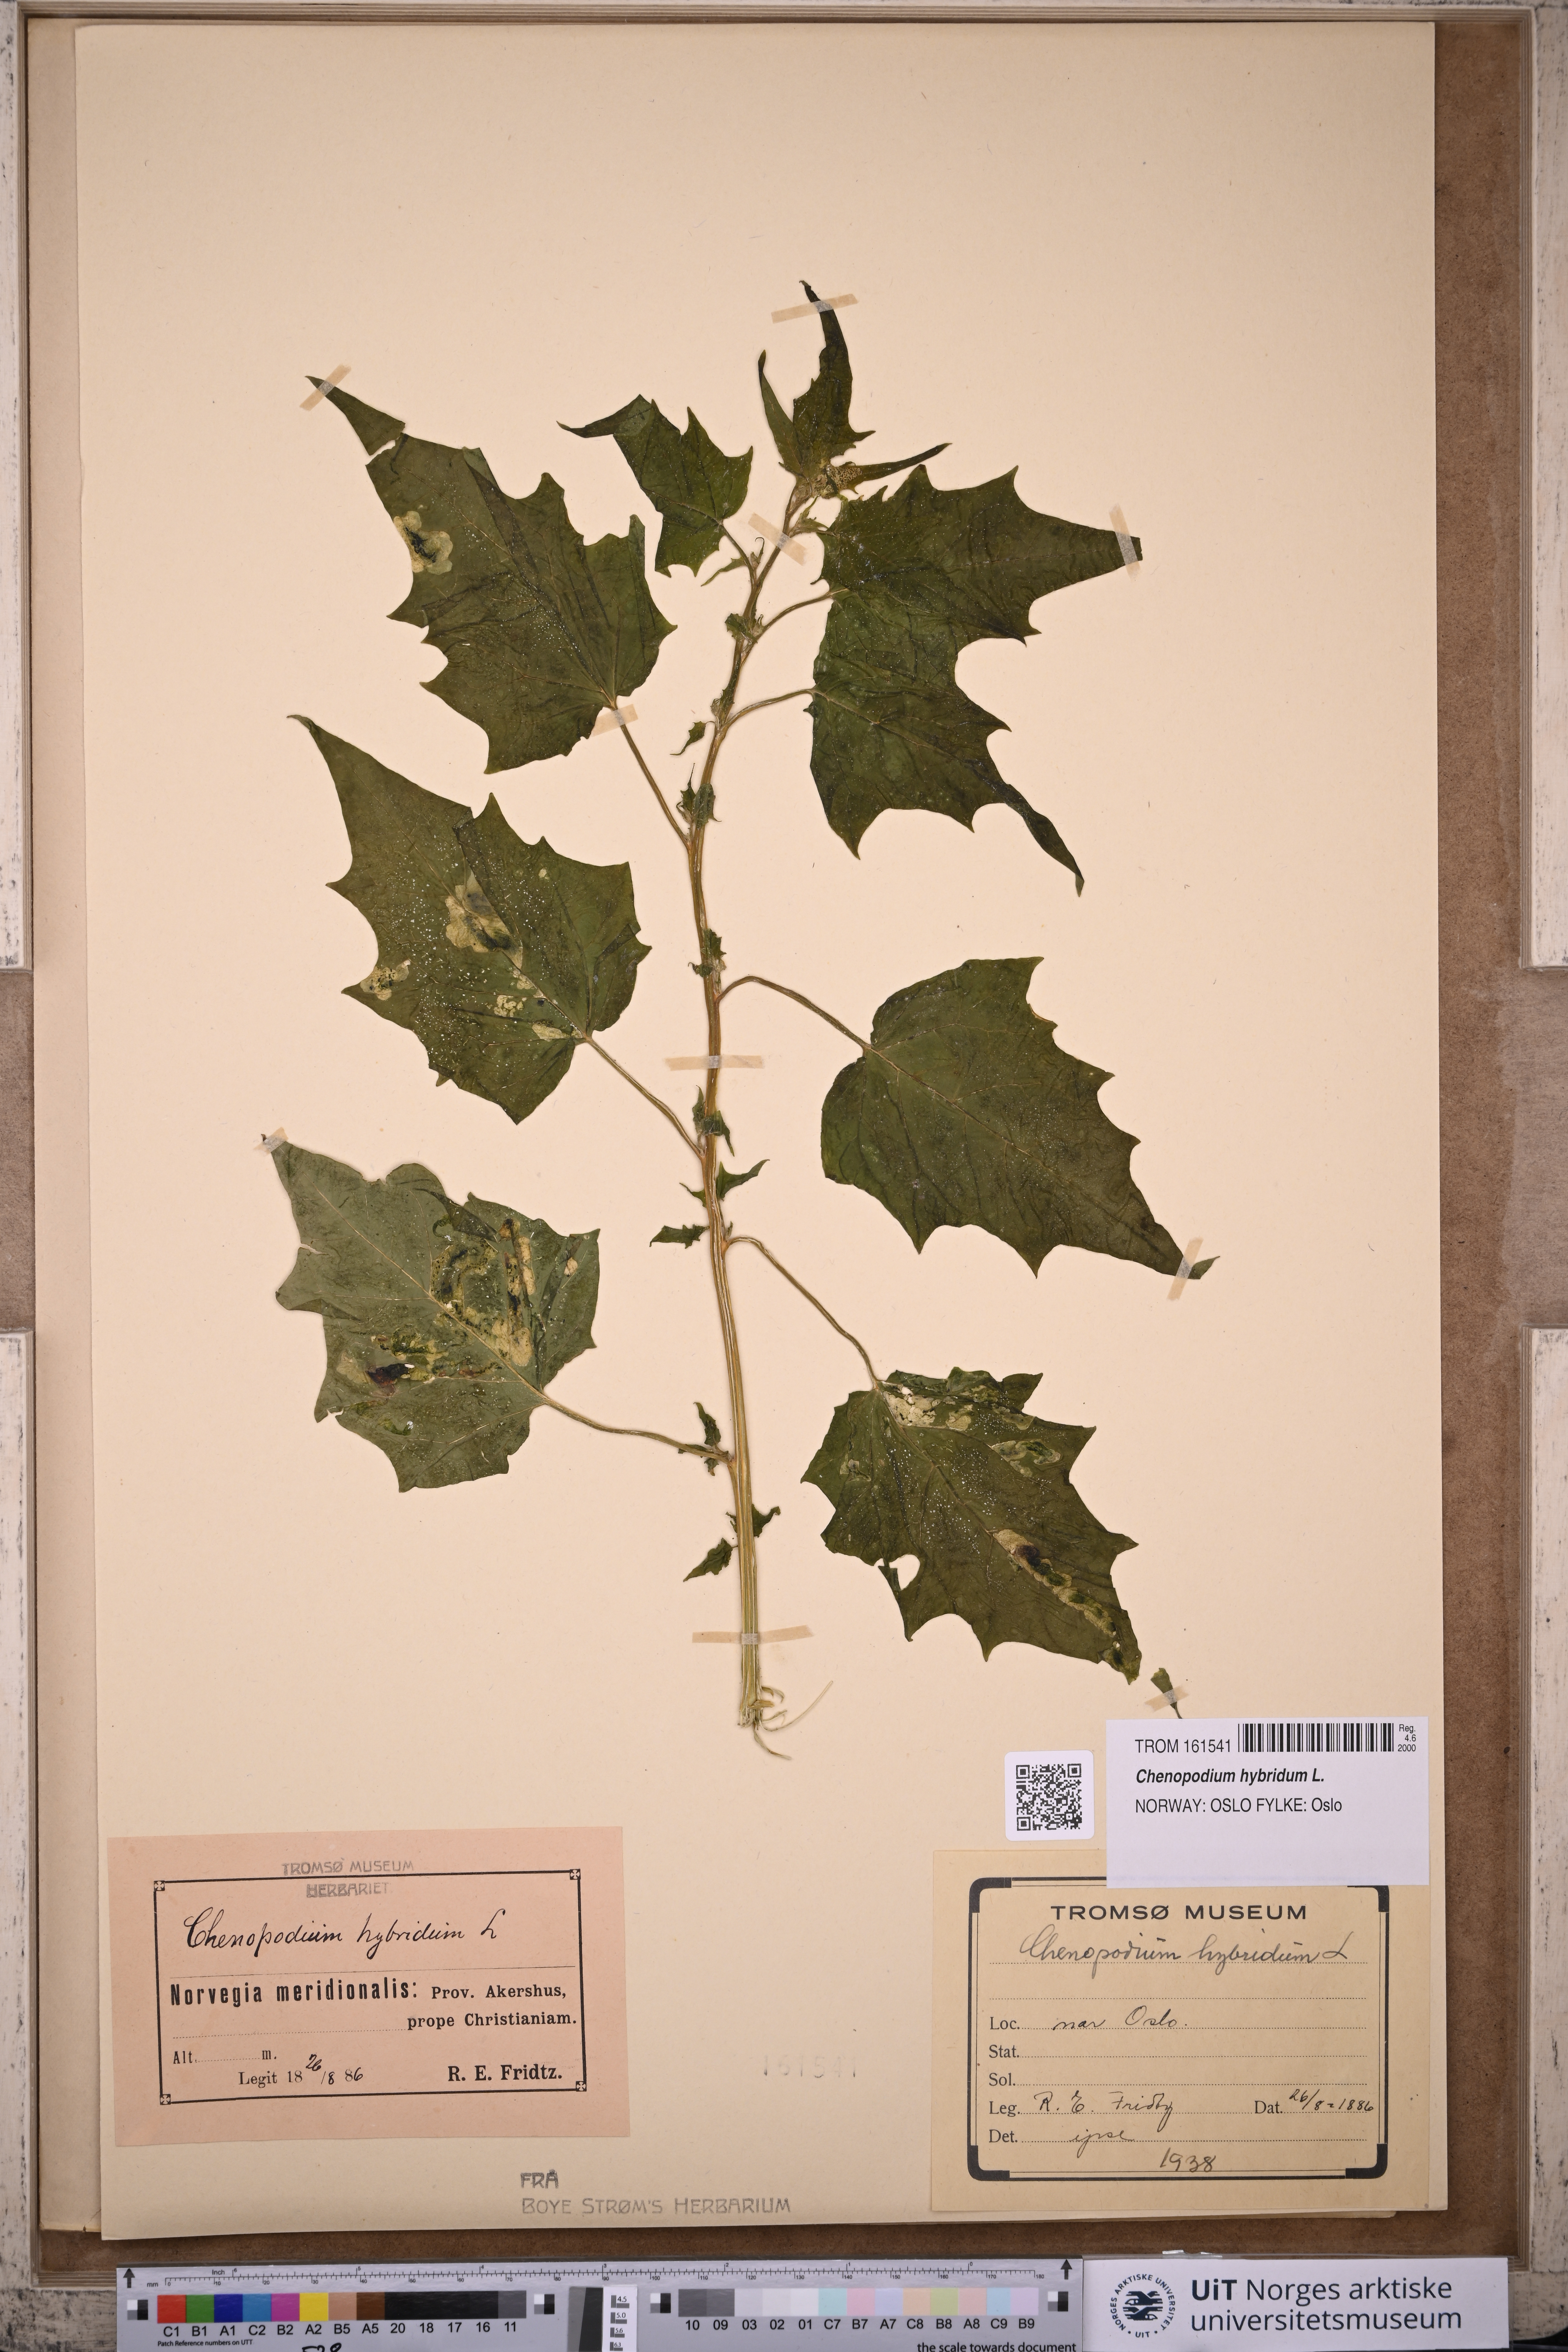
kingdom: Plantae
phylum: Tracheophyta
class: Magnoliopsida
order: Caryophyllales
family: Amaranthaceae
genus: Chenopodiastrum
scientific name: Chenopodiastrum hybridum
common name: Mapleleaf goosefoot
